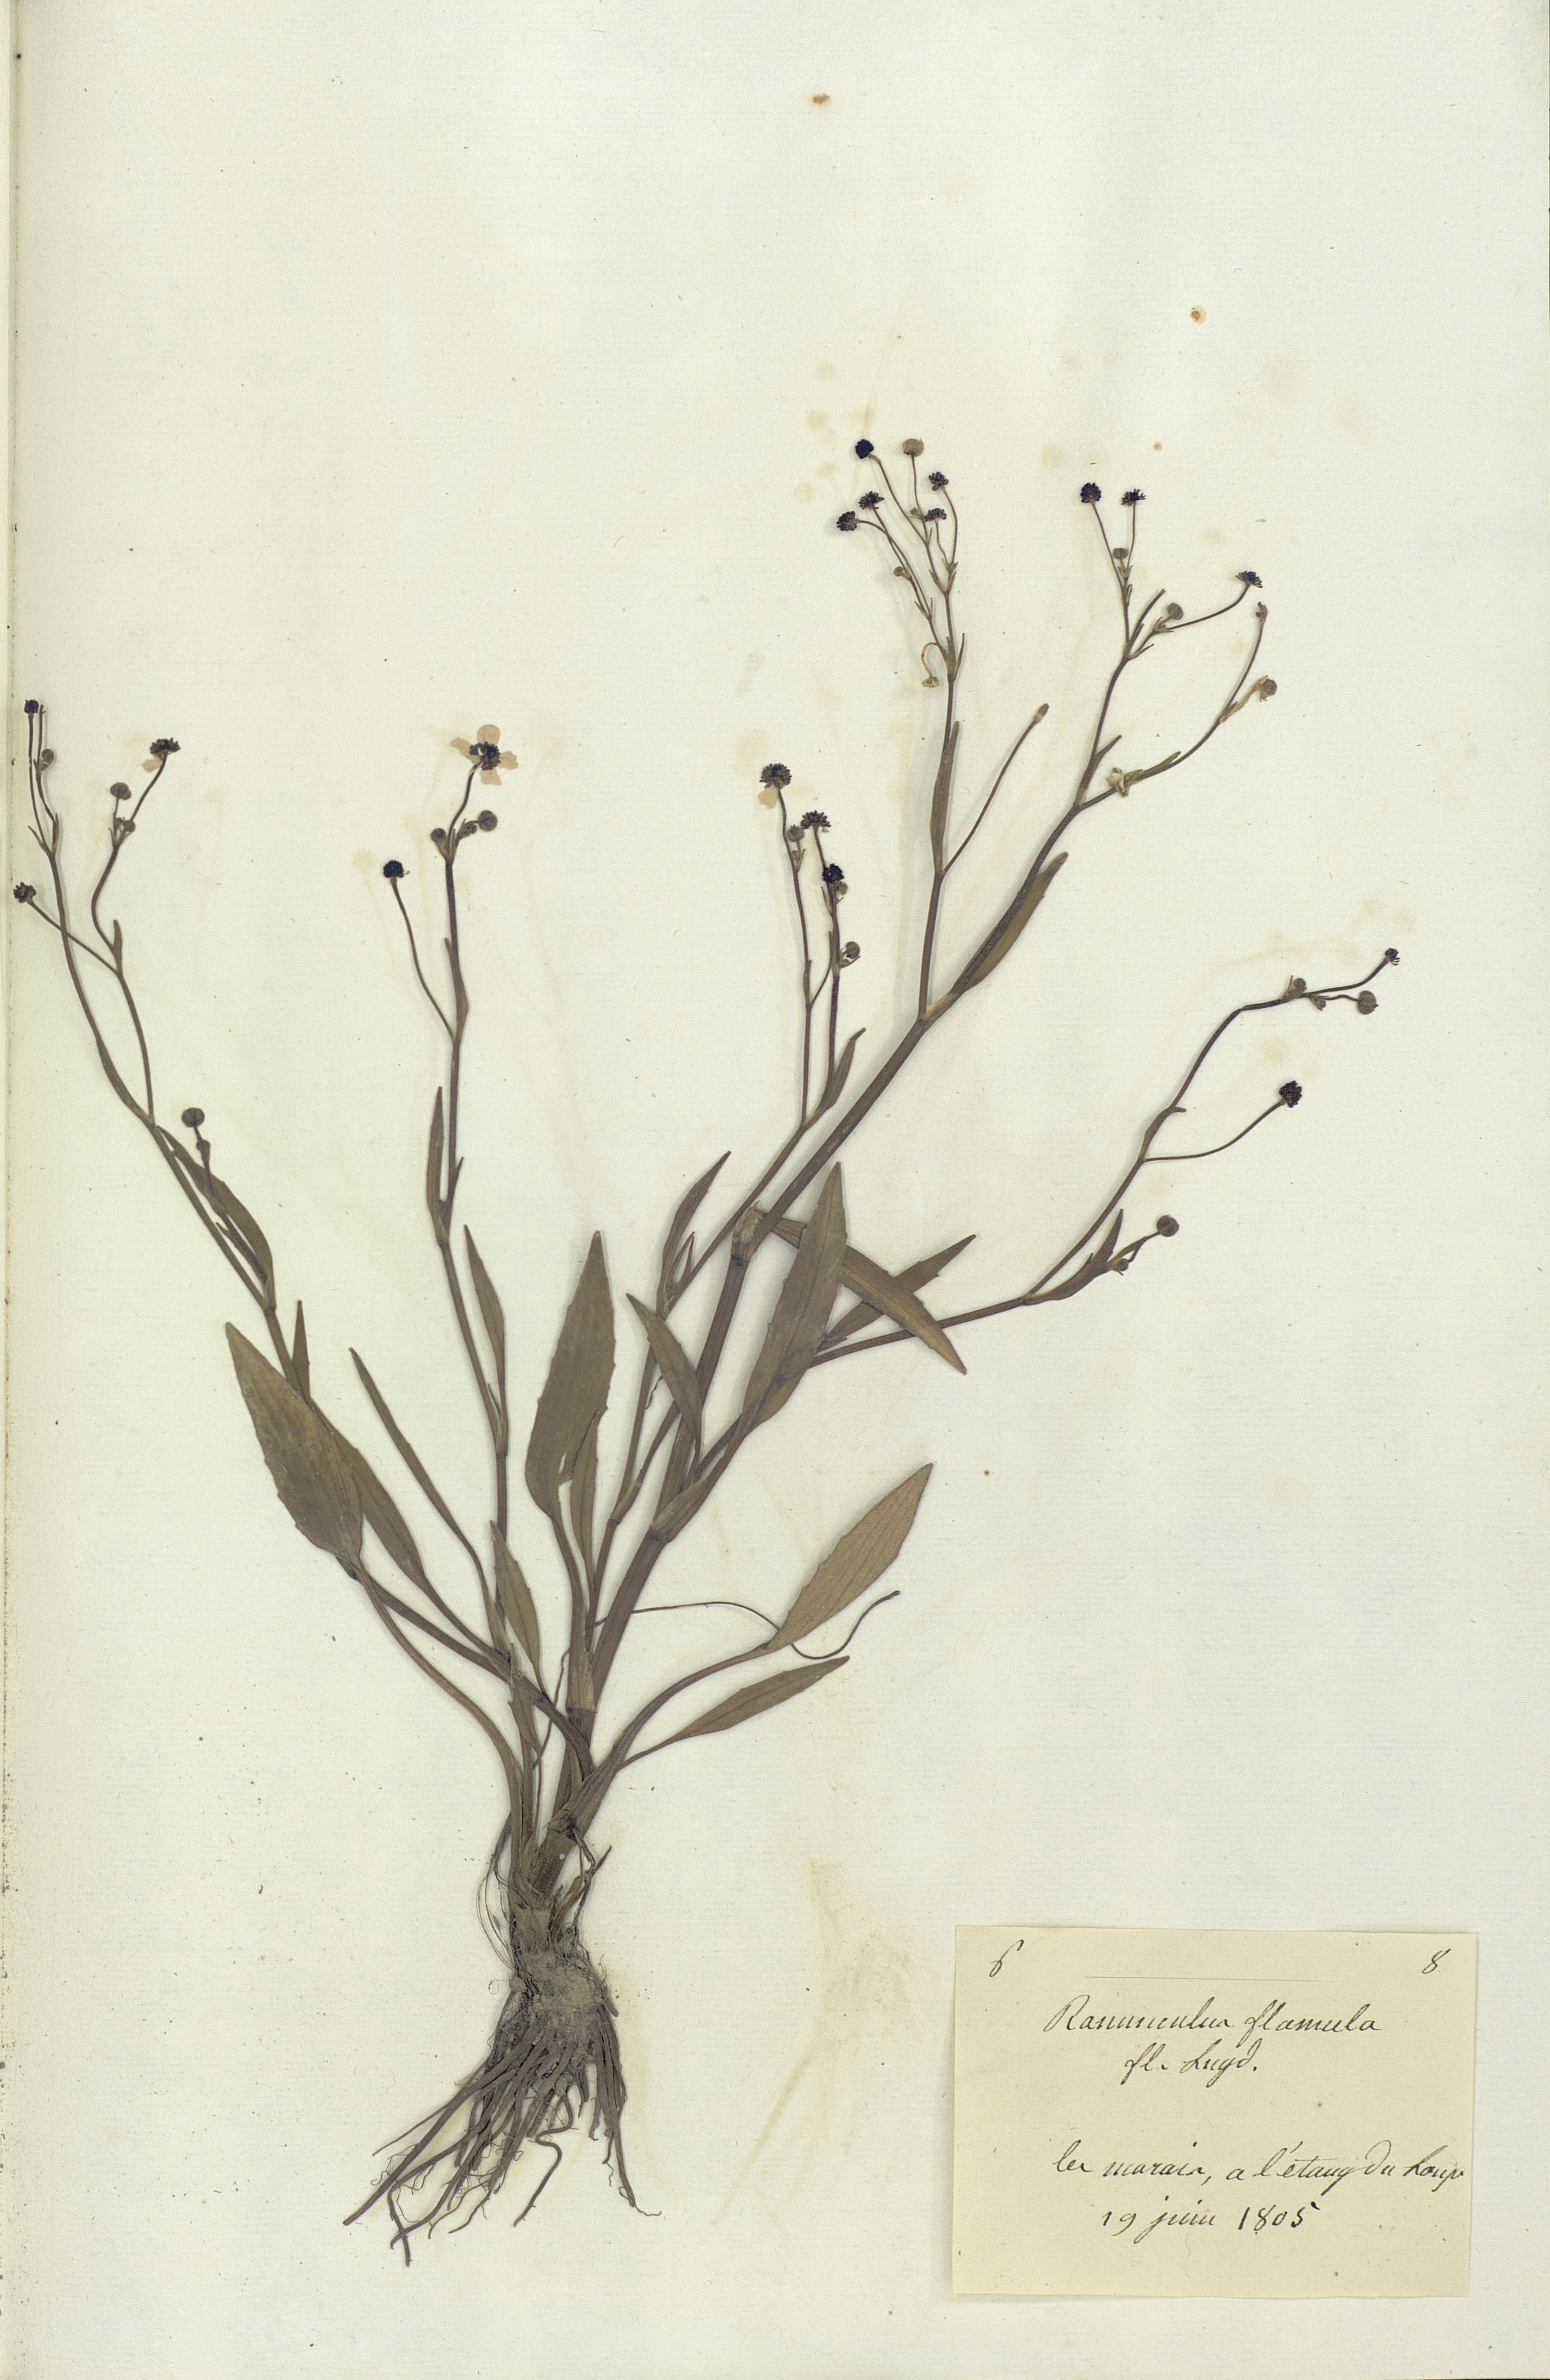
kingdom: Plantae
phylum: Tracheophyta
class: Magnoliopsida
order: Ranunculales
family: Ranunculaceae
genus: Ranunculus
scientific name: Ranunculus flammula
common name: Lesser spearwort
